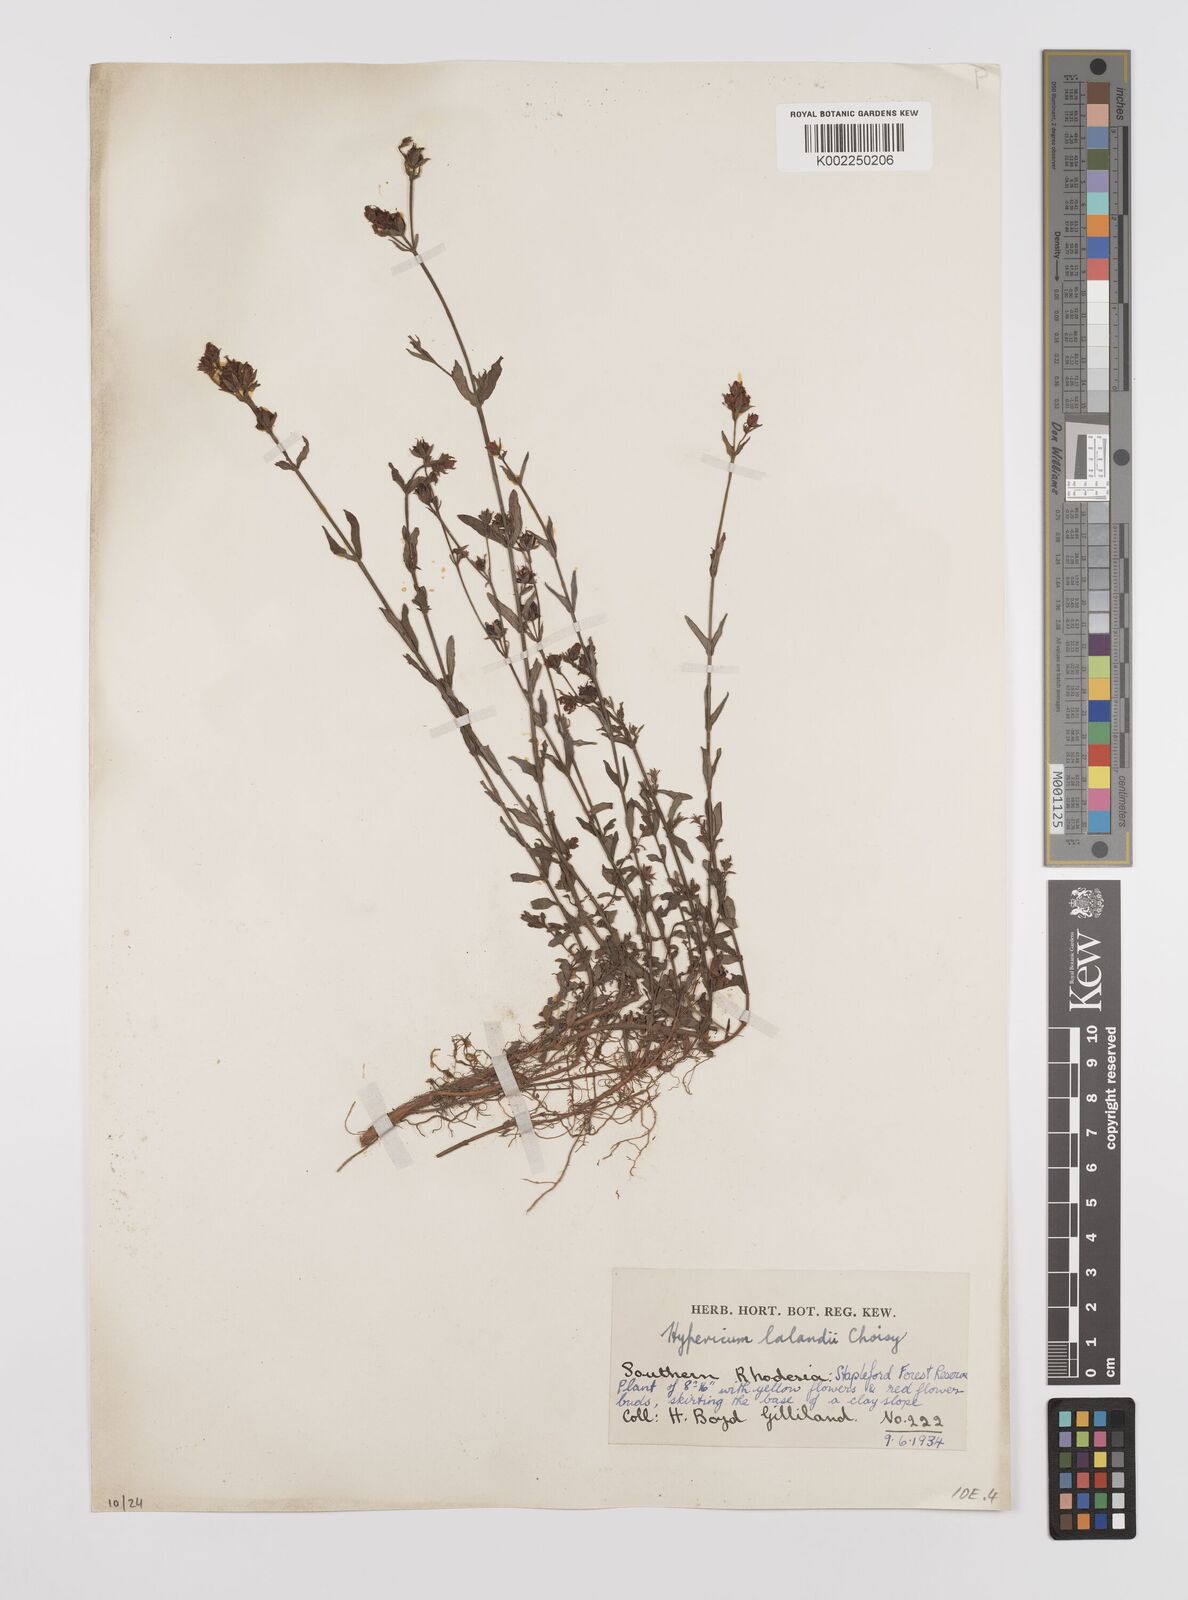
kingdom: Plantae
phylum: Tracheophyta
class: Magnoliopsida
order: Malpighiales
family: Hypericaceae
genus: Hypericum
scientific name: Hypericum lalandii
